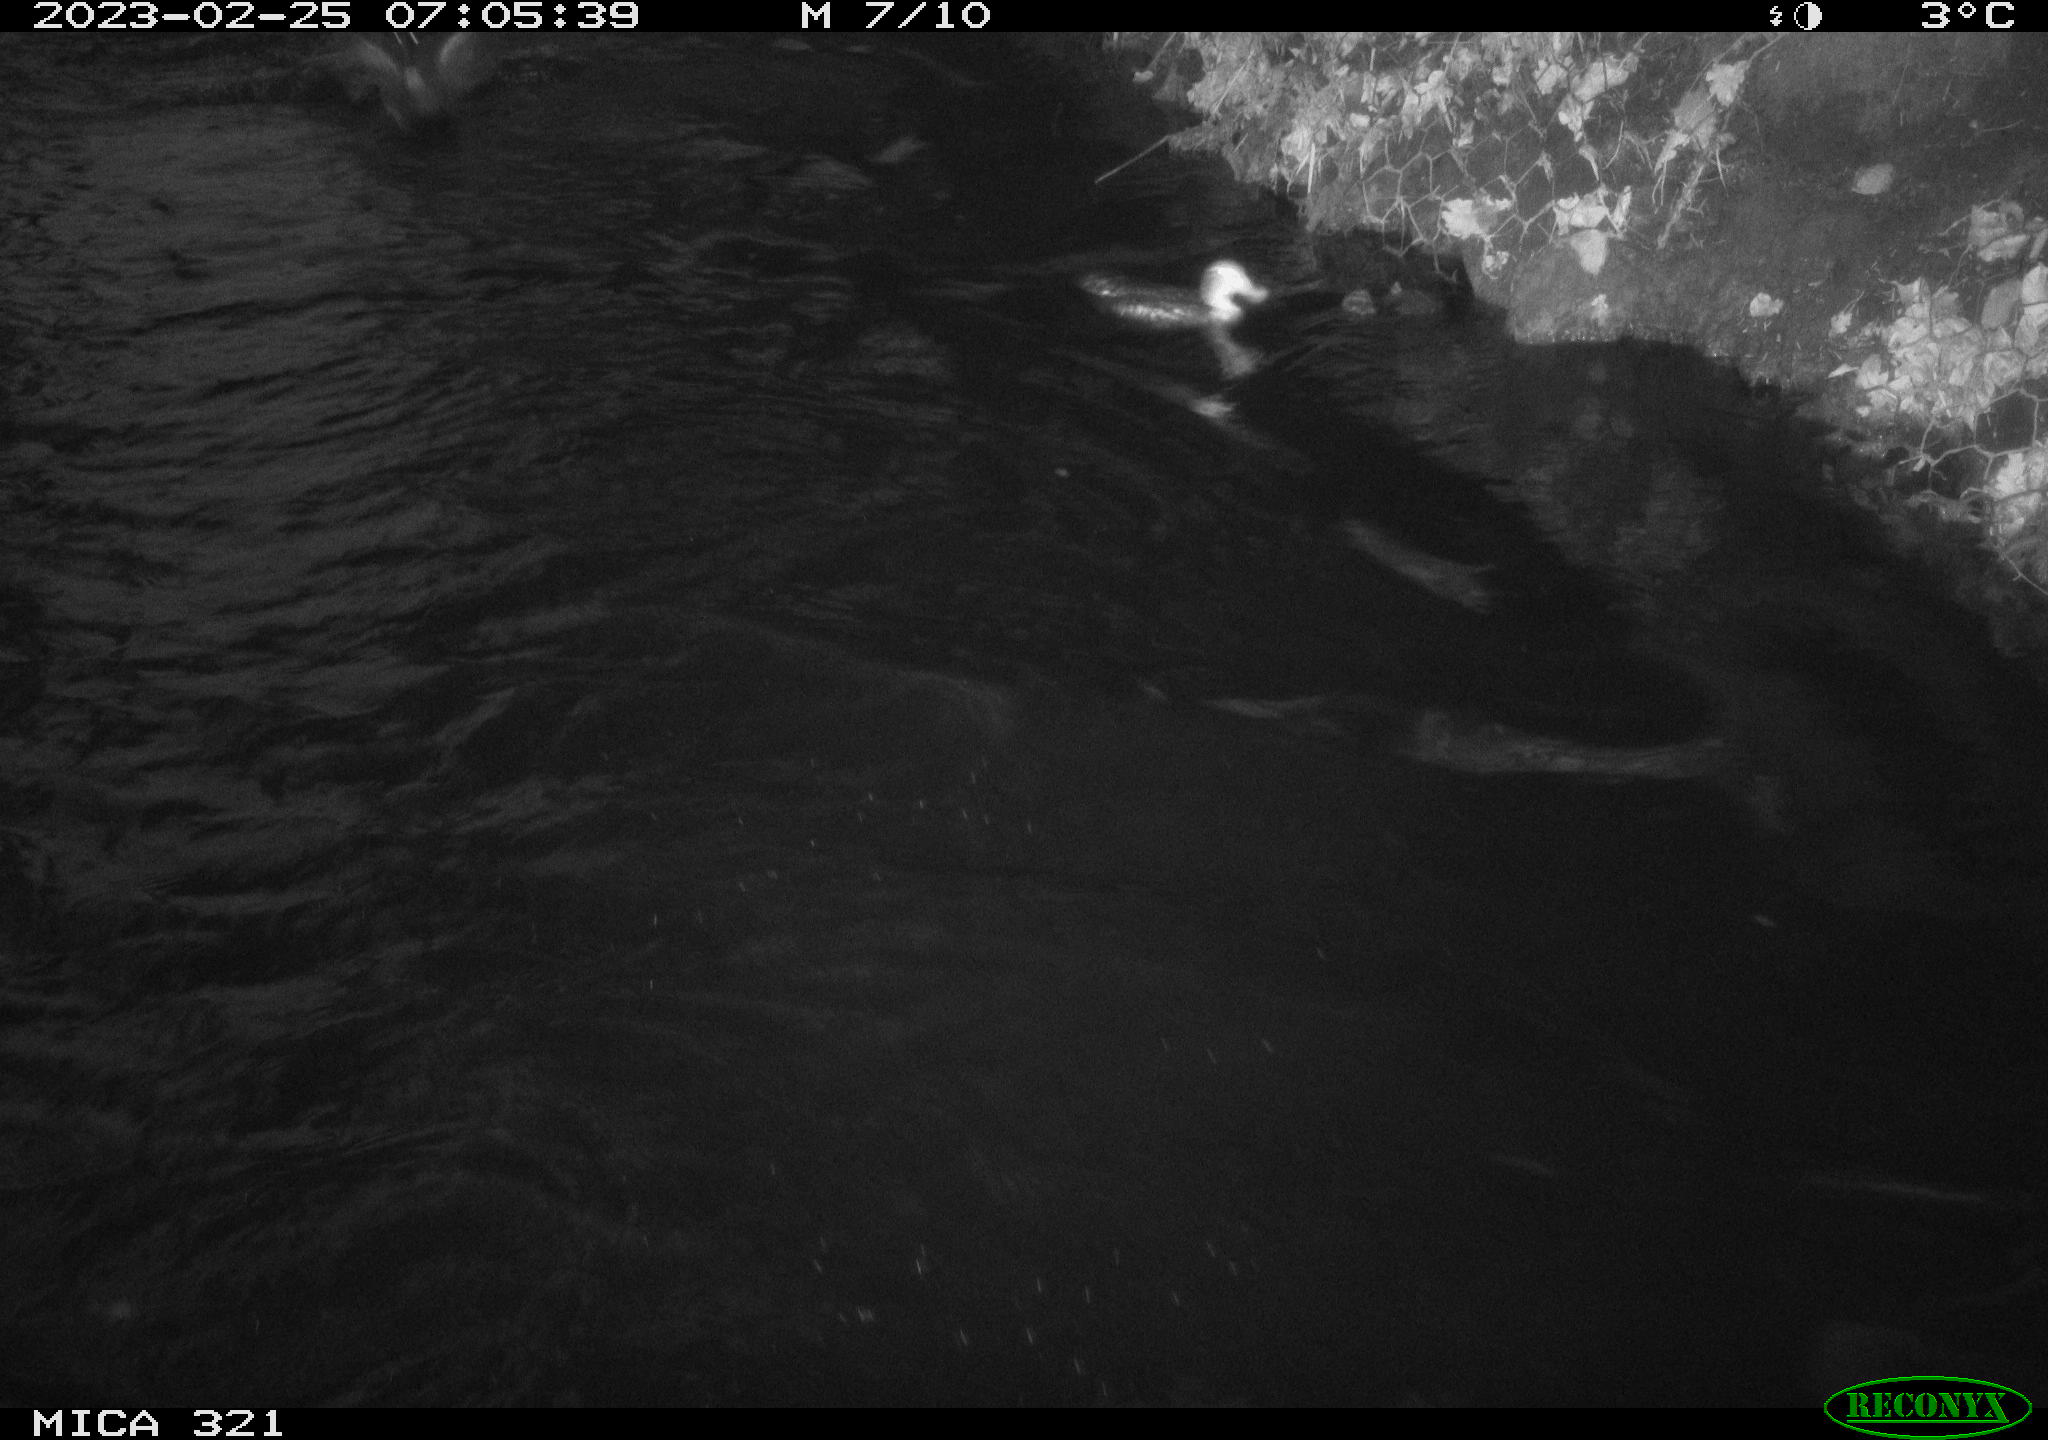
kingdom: Animalia
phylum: Chordata
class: Aves
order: Pelecaniformes
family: Ardeidae
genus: Ardea
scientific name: Ardea cinerea
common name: Grey heron
